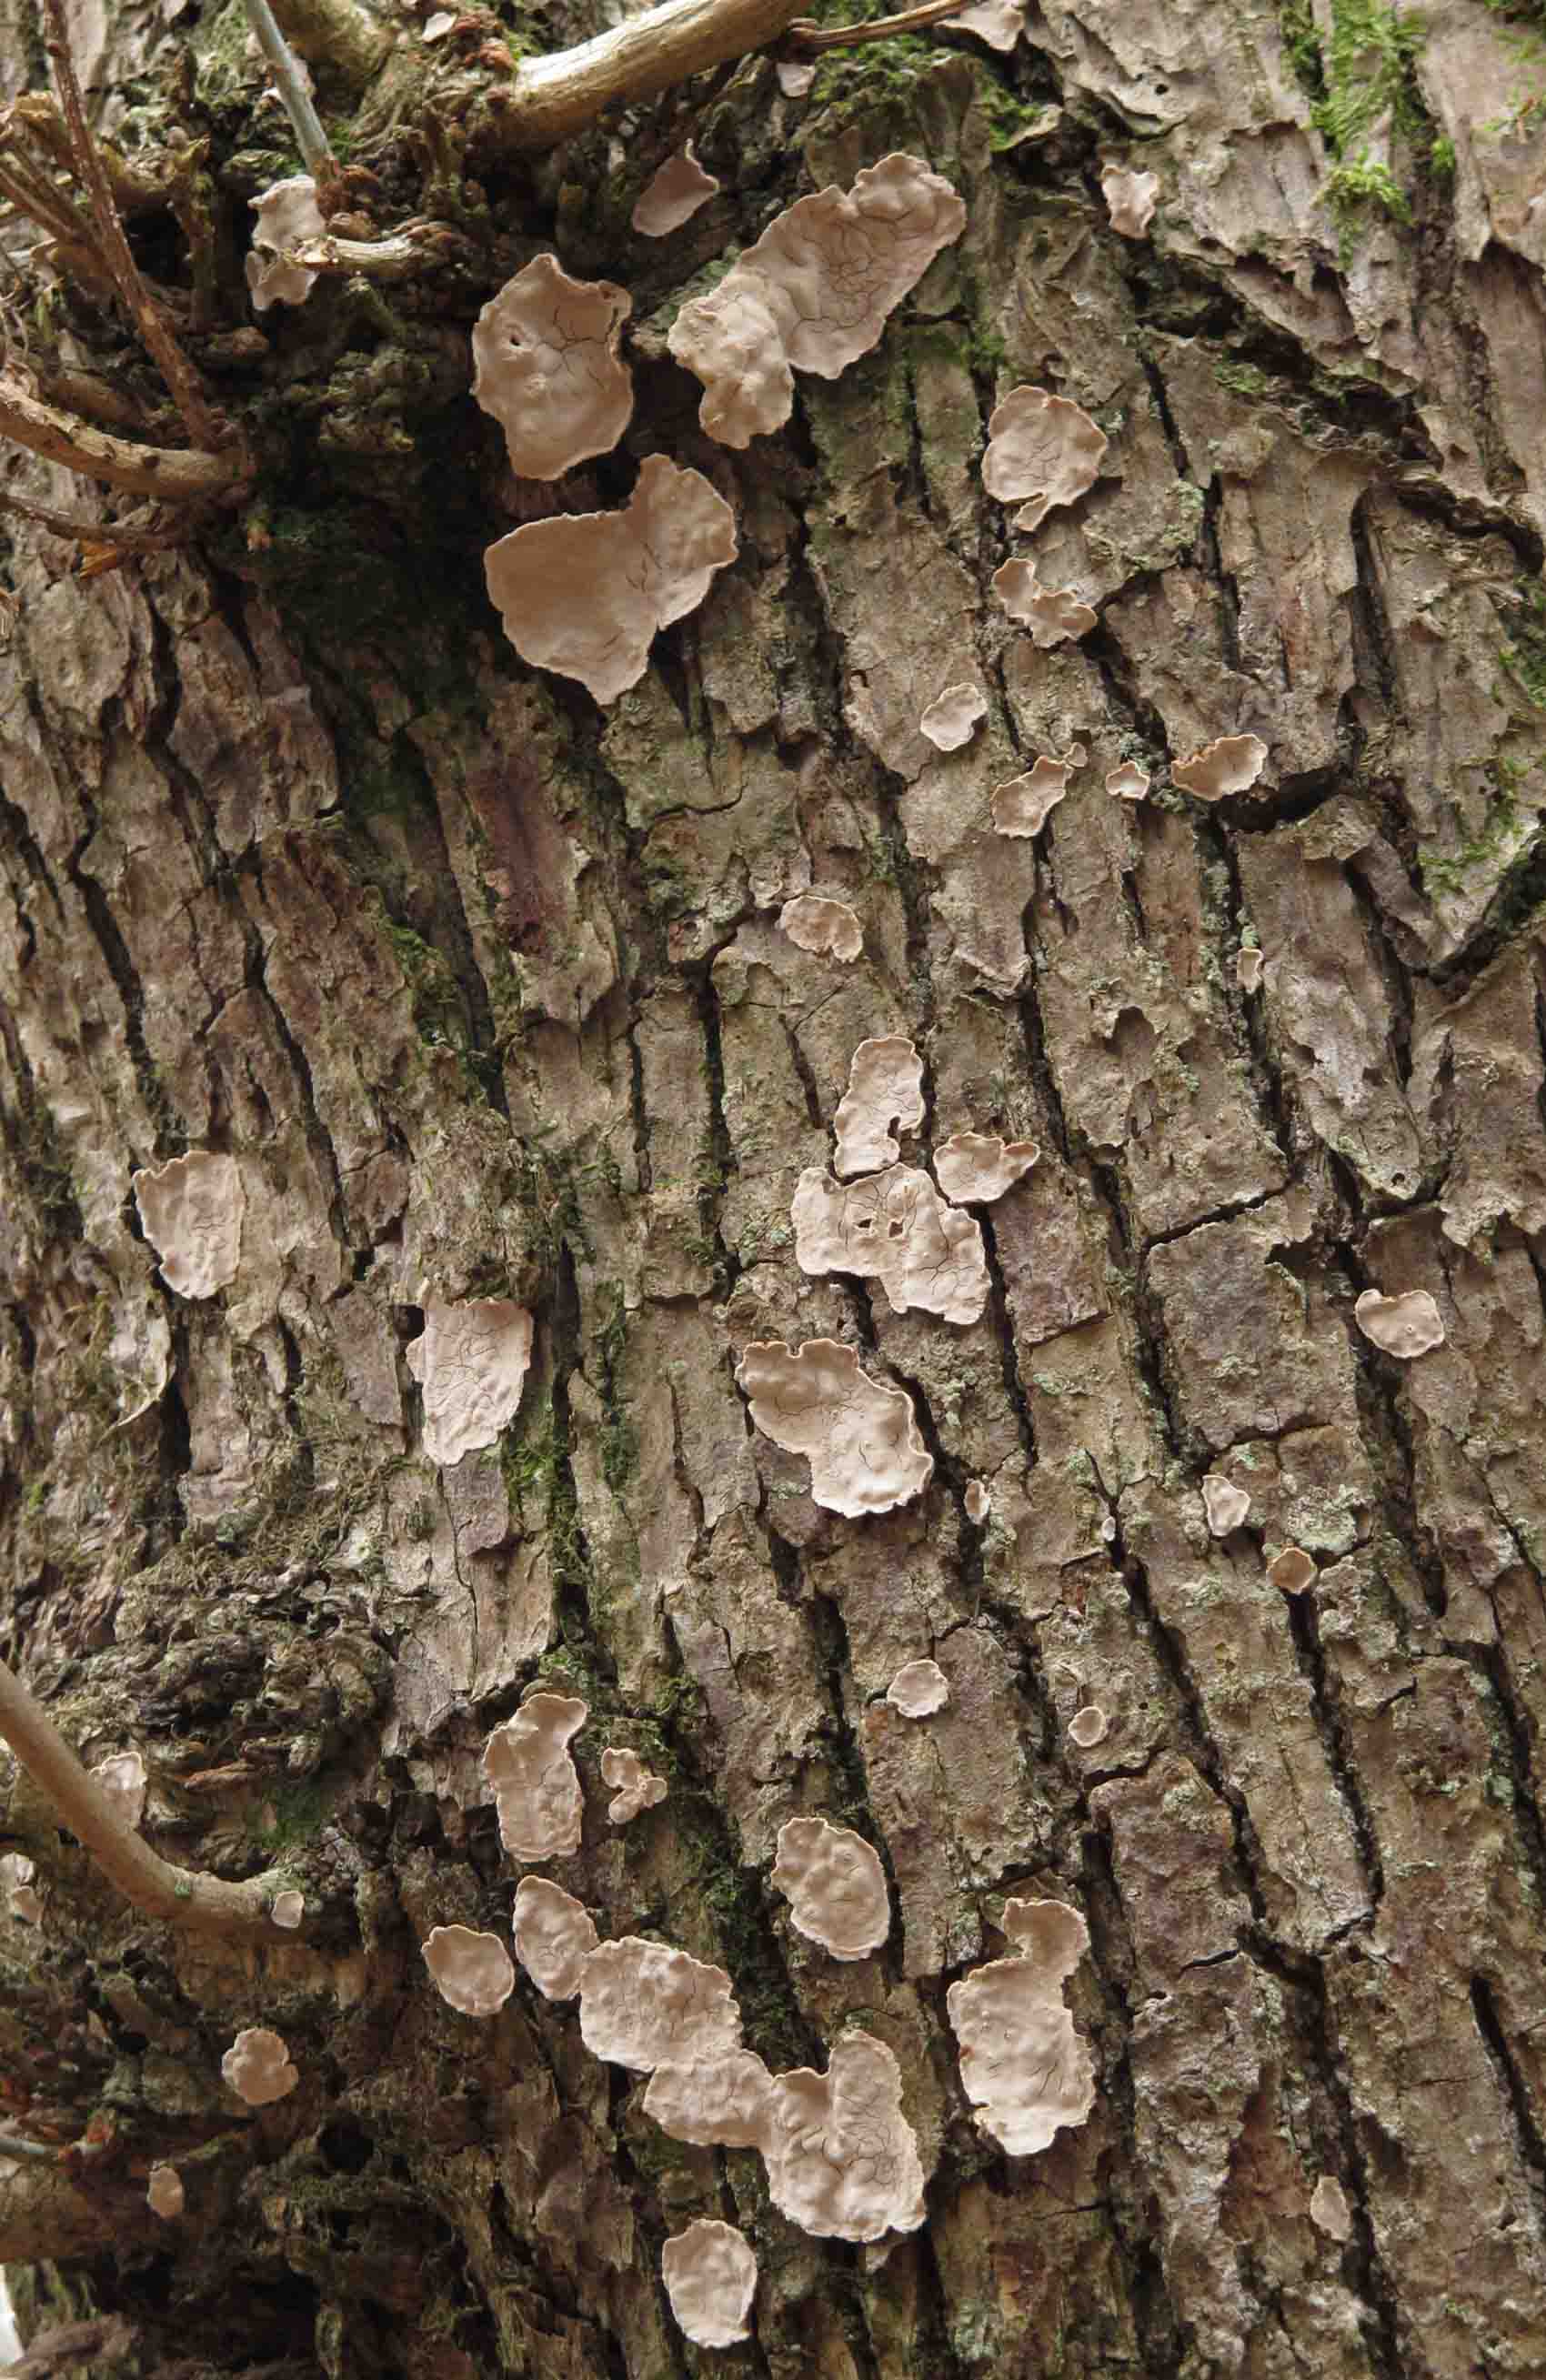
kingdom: Fungi
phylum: Basidiomycota
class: Agaricomycetes
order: Russulales
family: Stereaceae
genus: Aleurodiscus
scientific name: Aleurodiscus disciformis
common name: hvidlig skiveskorpe
